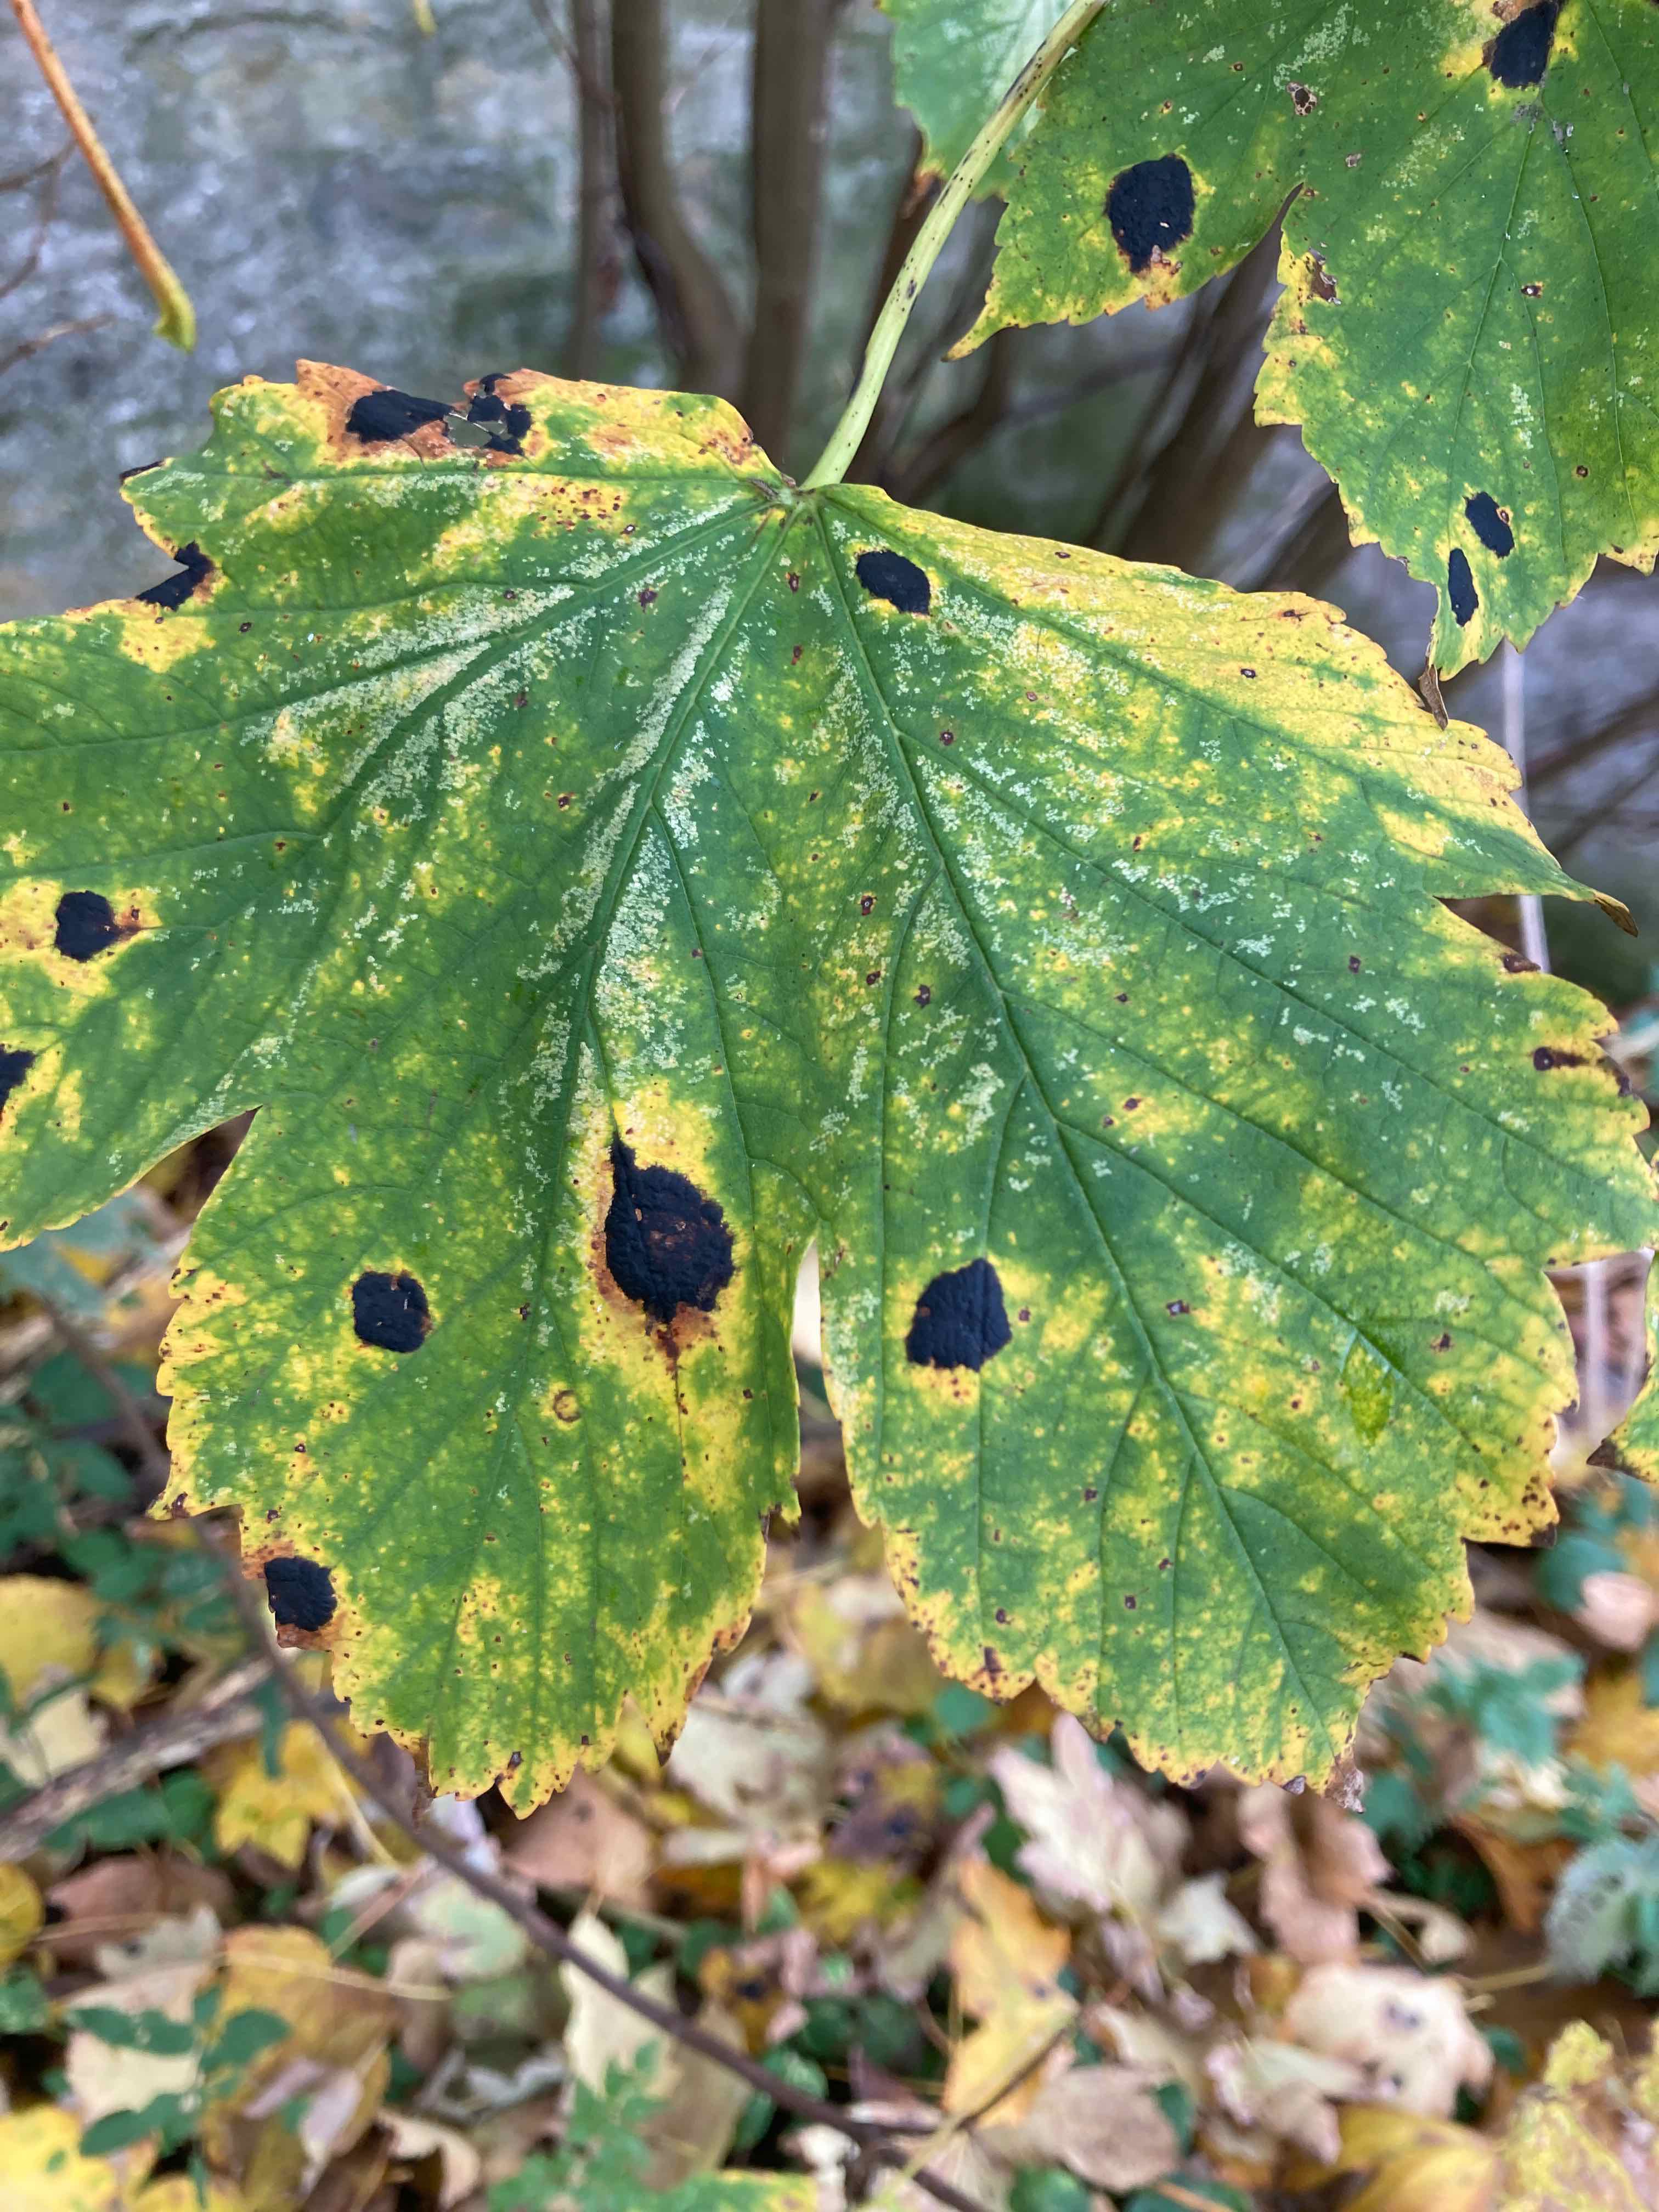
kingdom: Fungi
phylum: Ascomycota
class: Leotiomycetes
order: Rhytismatales
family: Rhytismataceae
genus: Rhytisma
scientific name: Rhytisma acerinum
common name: ahorn-rynkeplet
